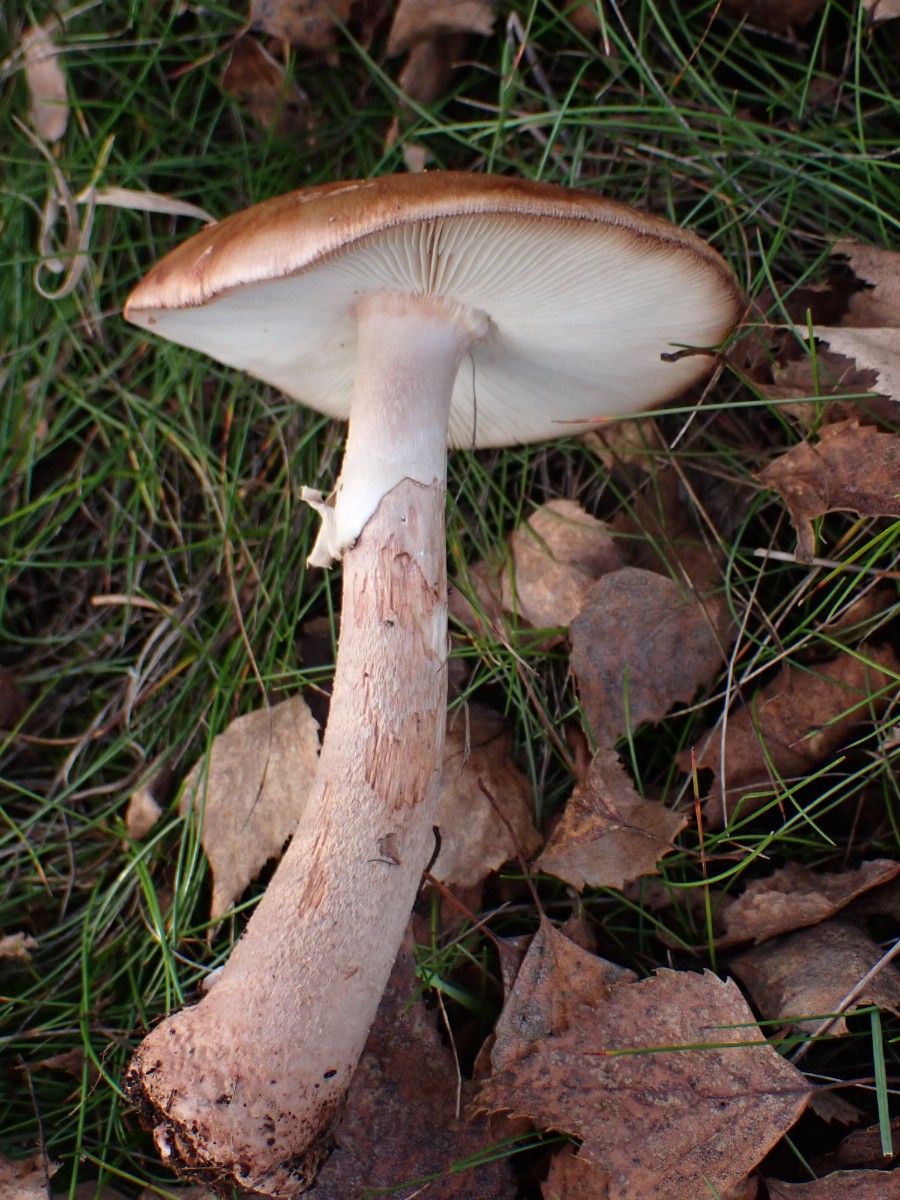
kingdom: Fungi
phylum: Basidiomycota
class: Agaricomycetes
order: Agaricales
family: Amanitaceae
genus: Amanita
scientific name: Amanita rubescens
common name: rødmende fluesvamp
